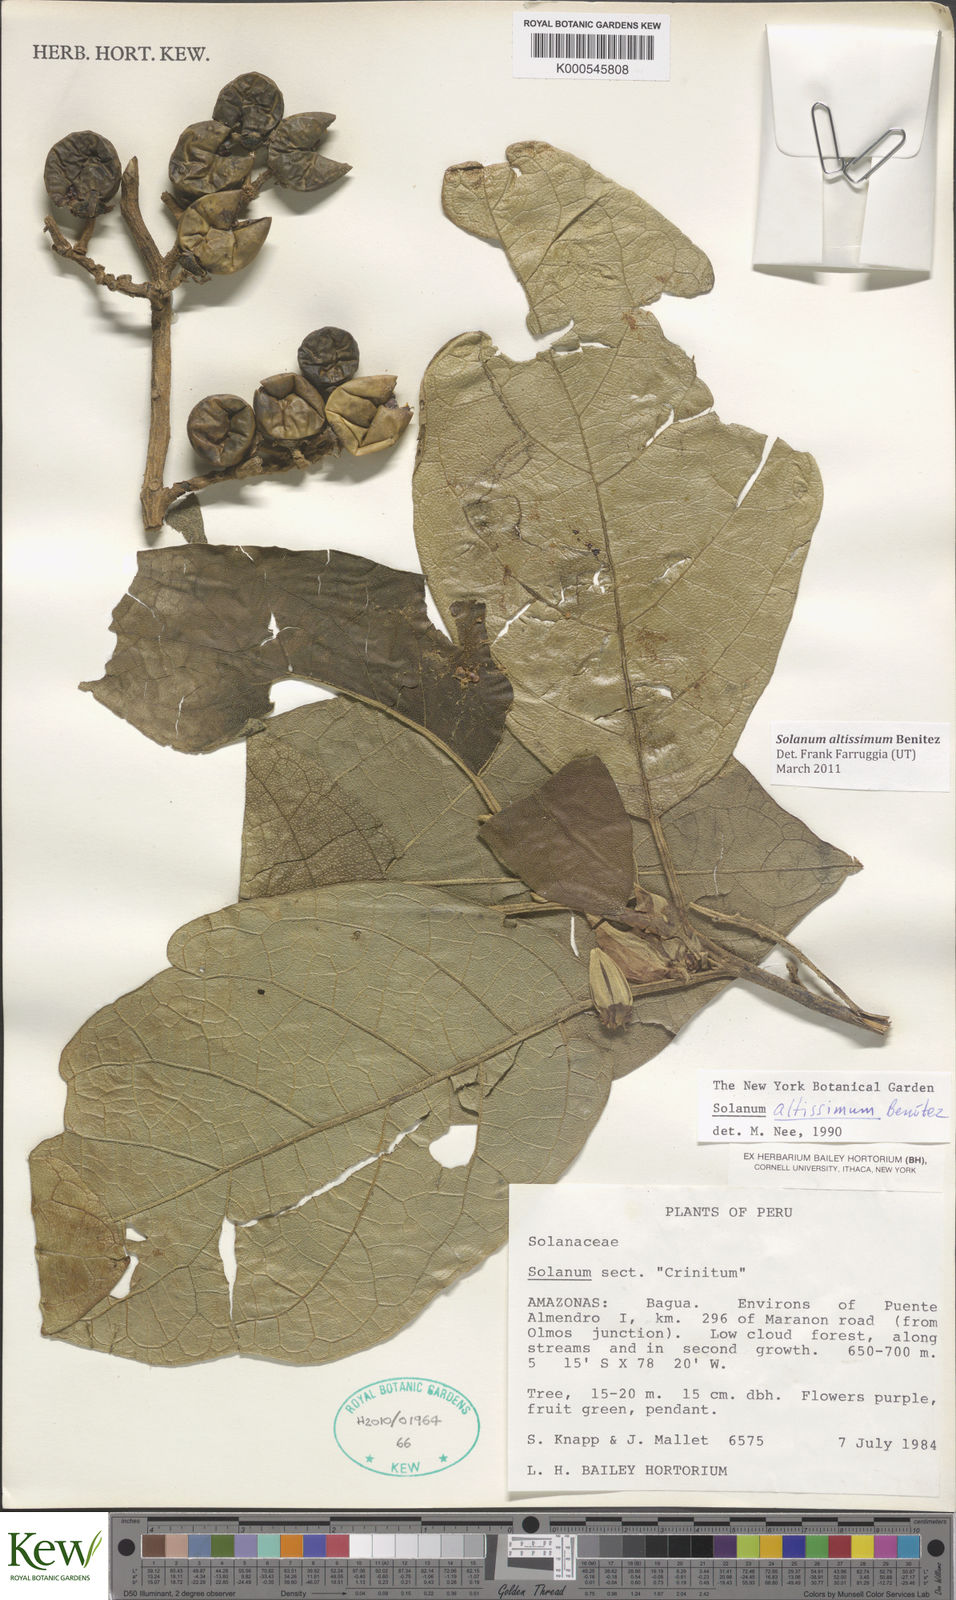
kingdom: Plantae
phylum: Tracheophyta
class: Magnoliopsida
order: Solanales
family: Solanaceae
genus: Solanum
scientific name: Solanum
